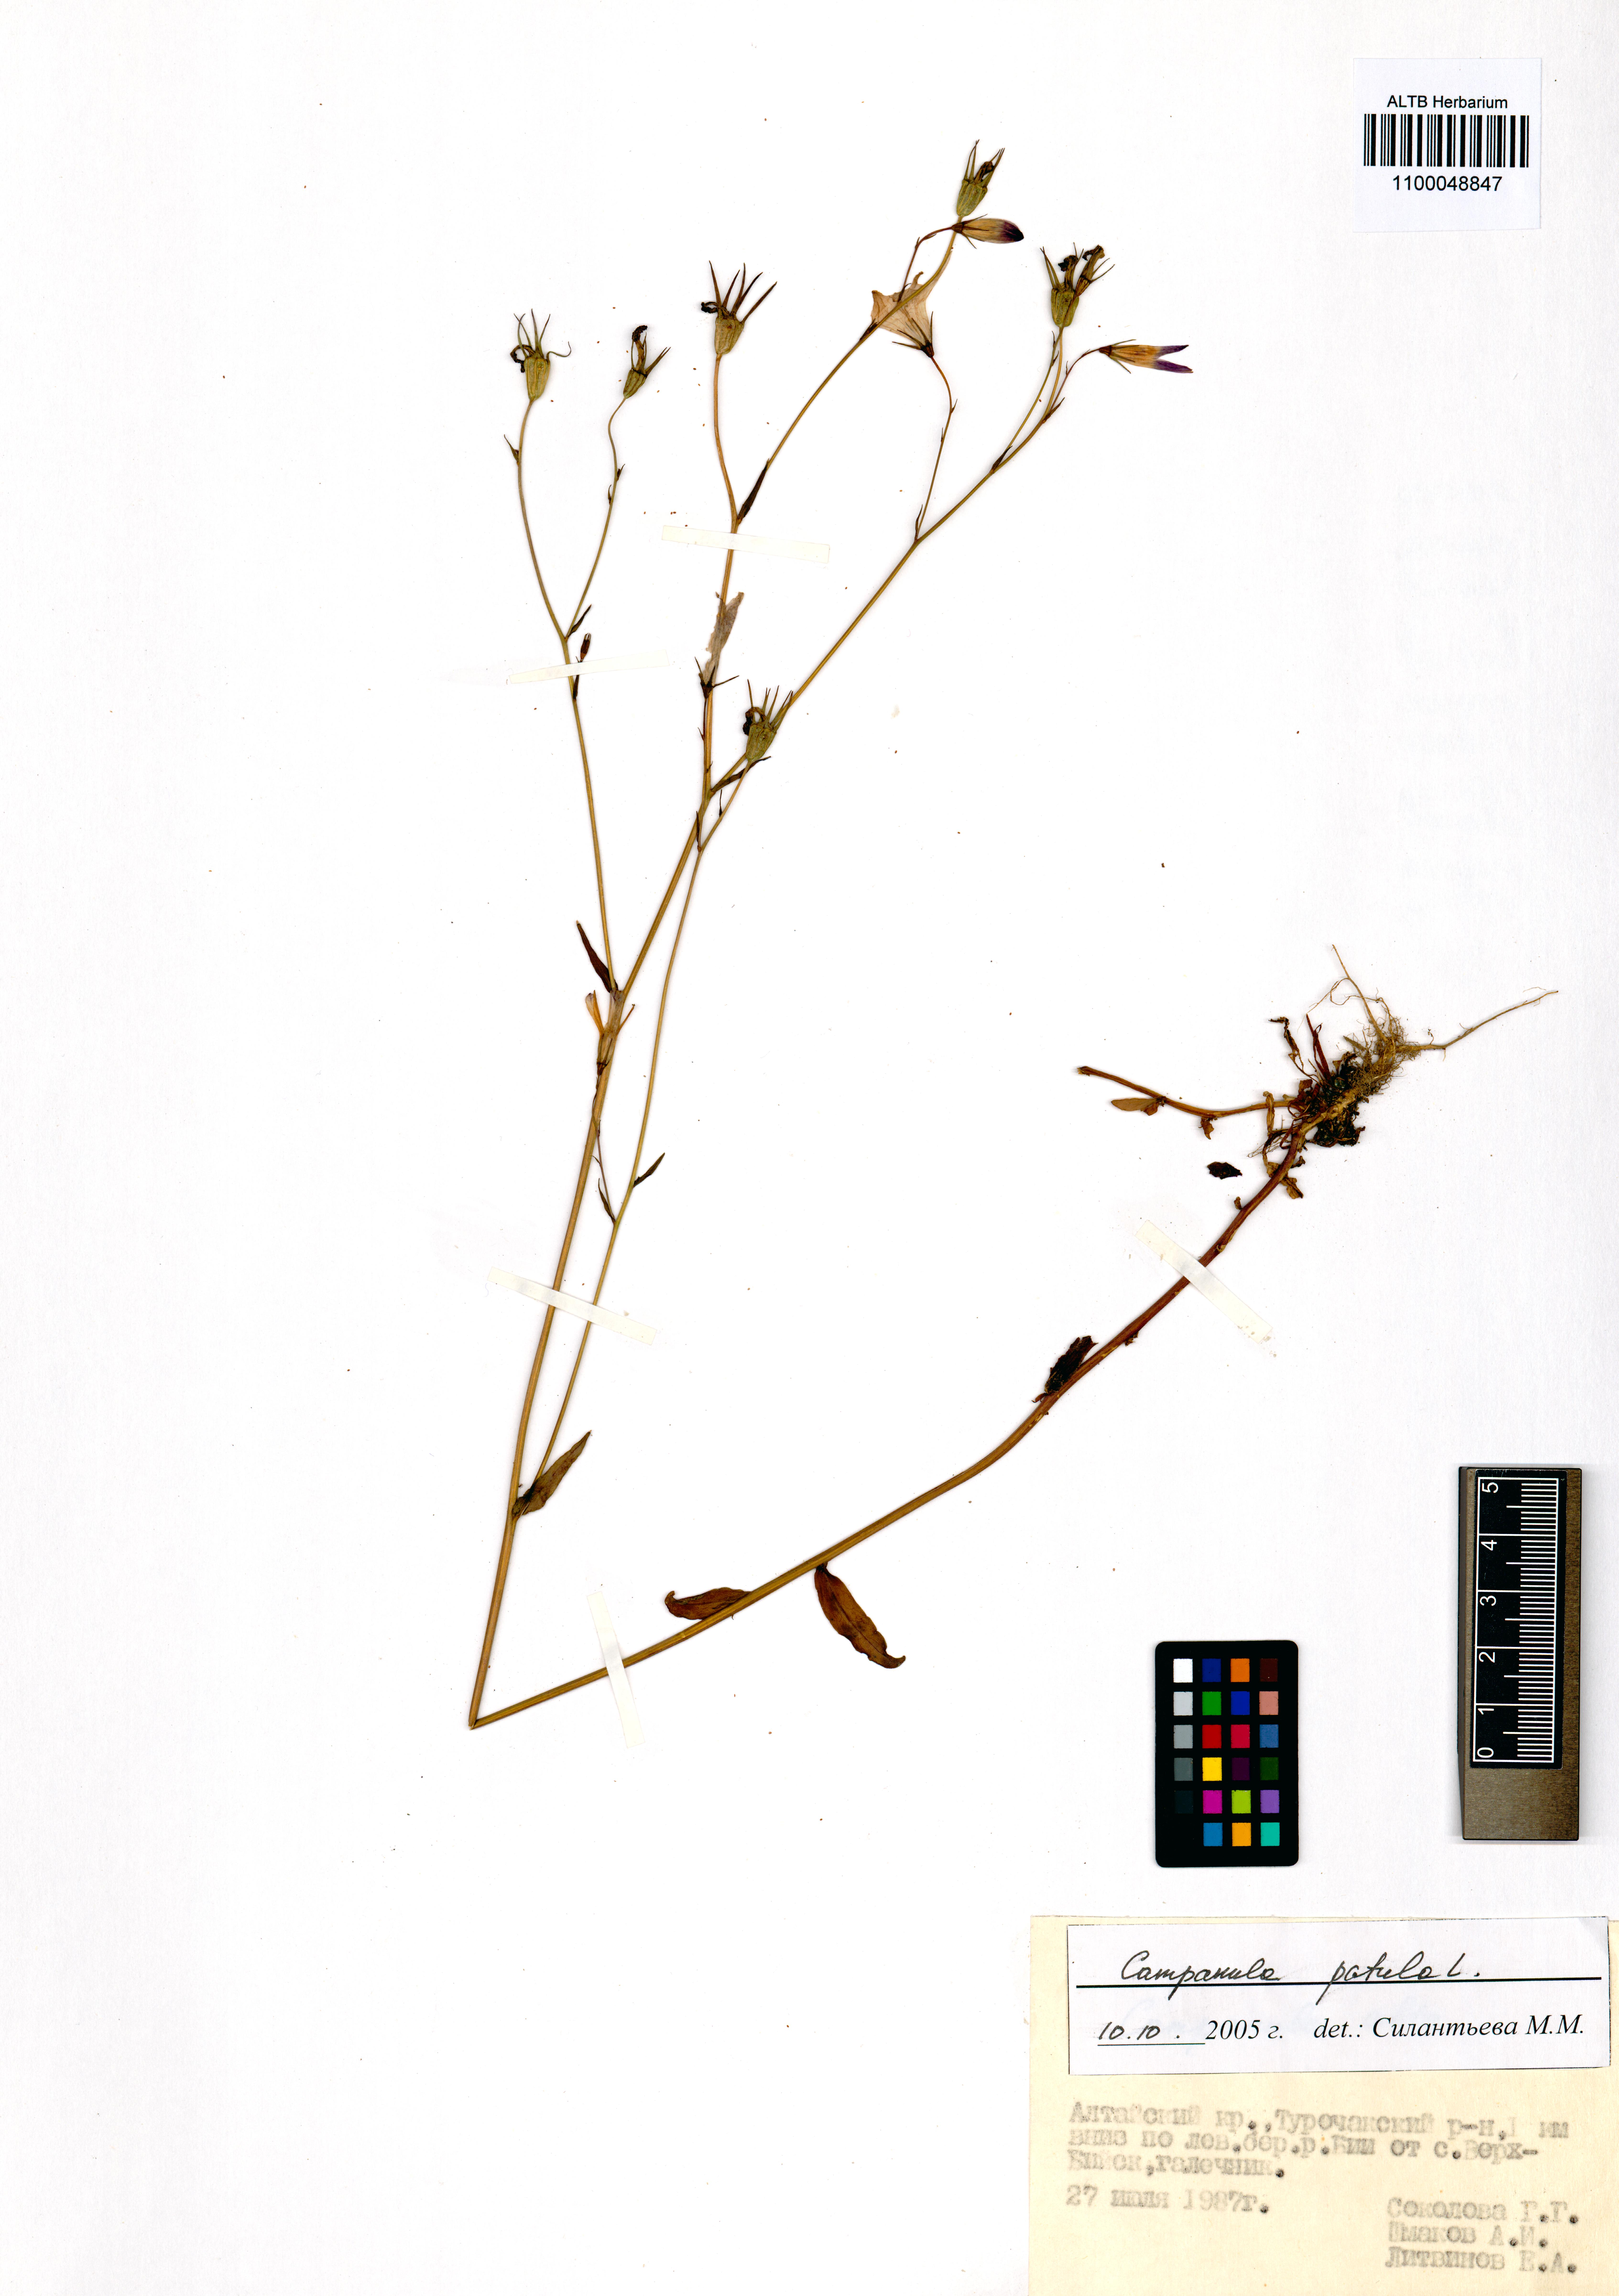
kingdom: Plantae
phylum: Tracheophyta
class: Magnoliopsida
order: Asterales
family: Campanulaceae
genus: Campanula
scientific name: Campanula patula
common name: Spreading bellflower
